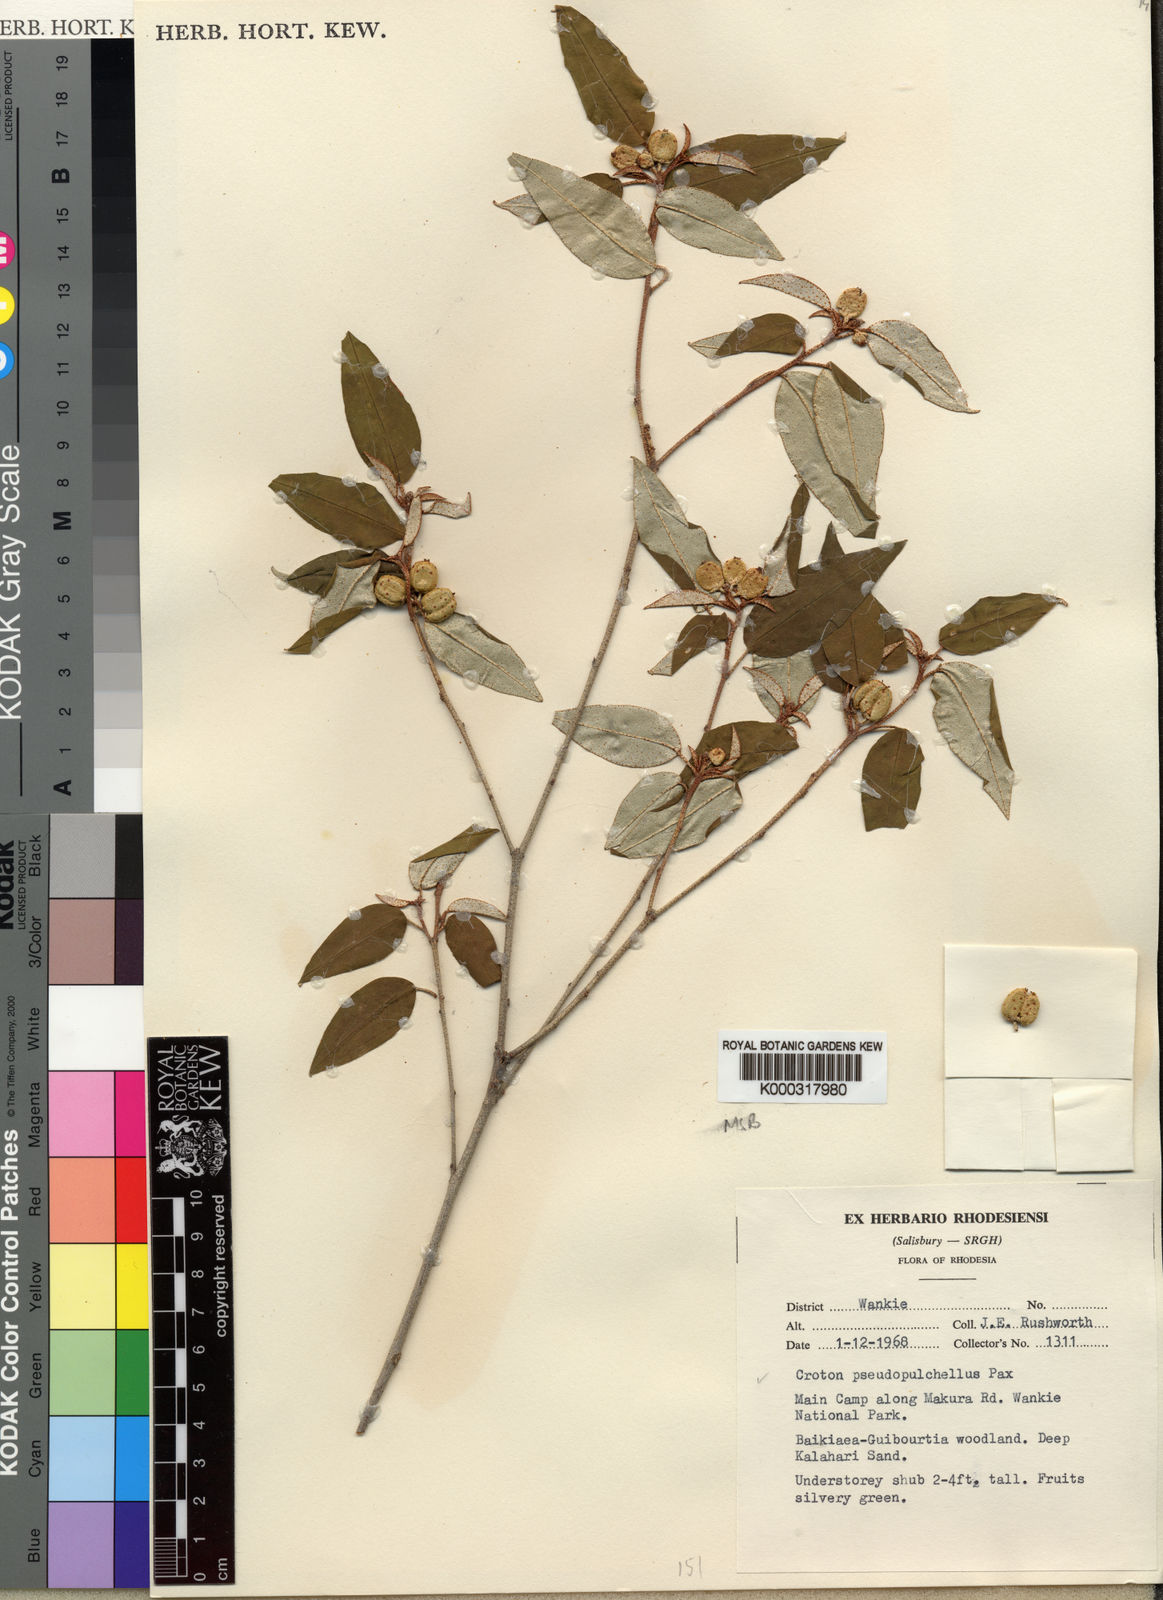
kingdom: Plantae
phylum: Tracheophyta
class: Magnoliopsida
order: Malpighiales
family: Euphorbiaceae
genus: Croton
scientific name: Croton pseudopulchellus
